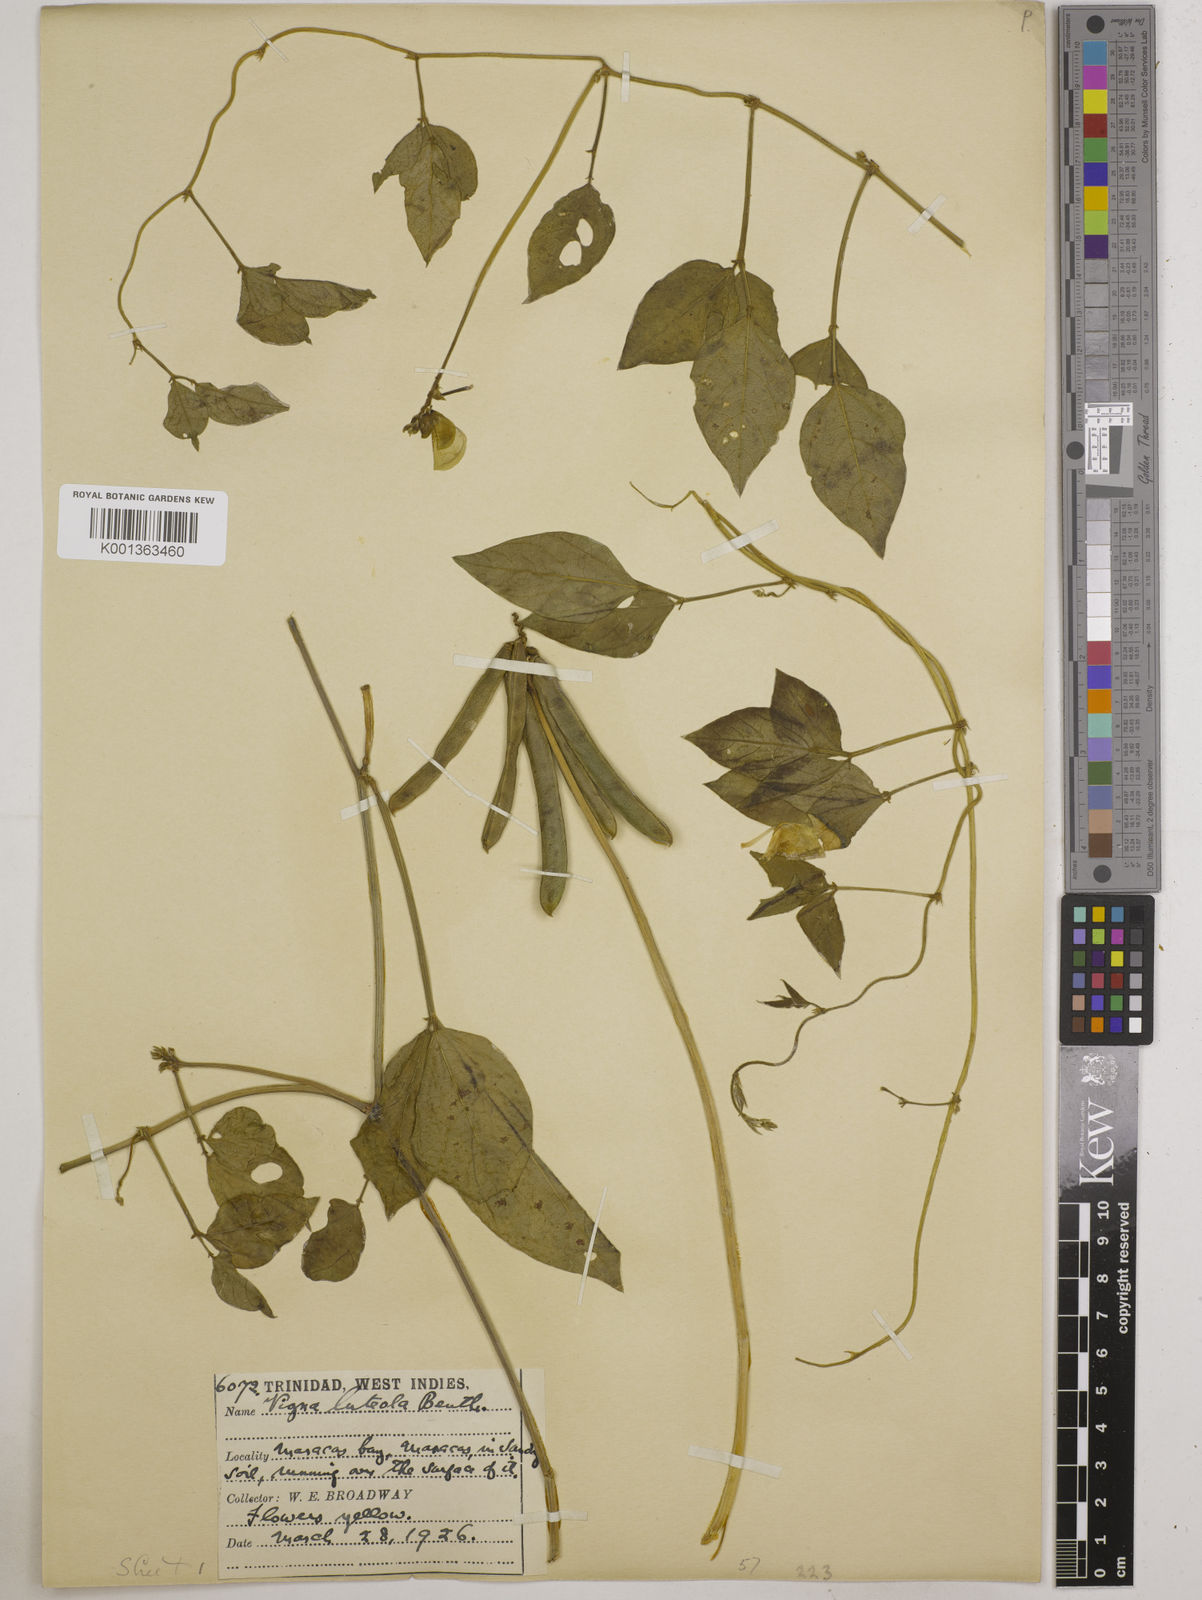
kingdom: Plantae
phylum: Tracheophyta
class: Magnoliopsida
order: Fabales
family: Fabaceae
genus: Vigna
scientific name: Vigna luteola
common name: Hairypod cowpea
